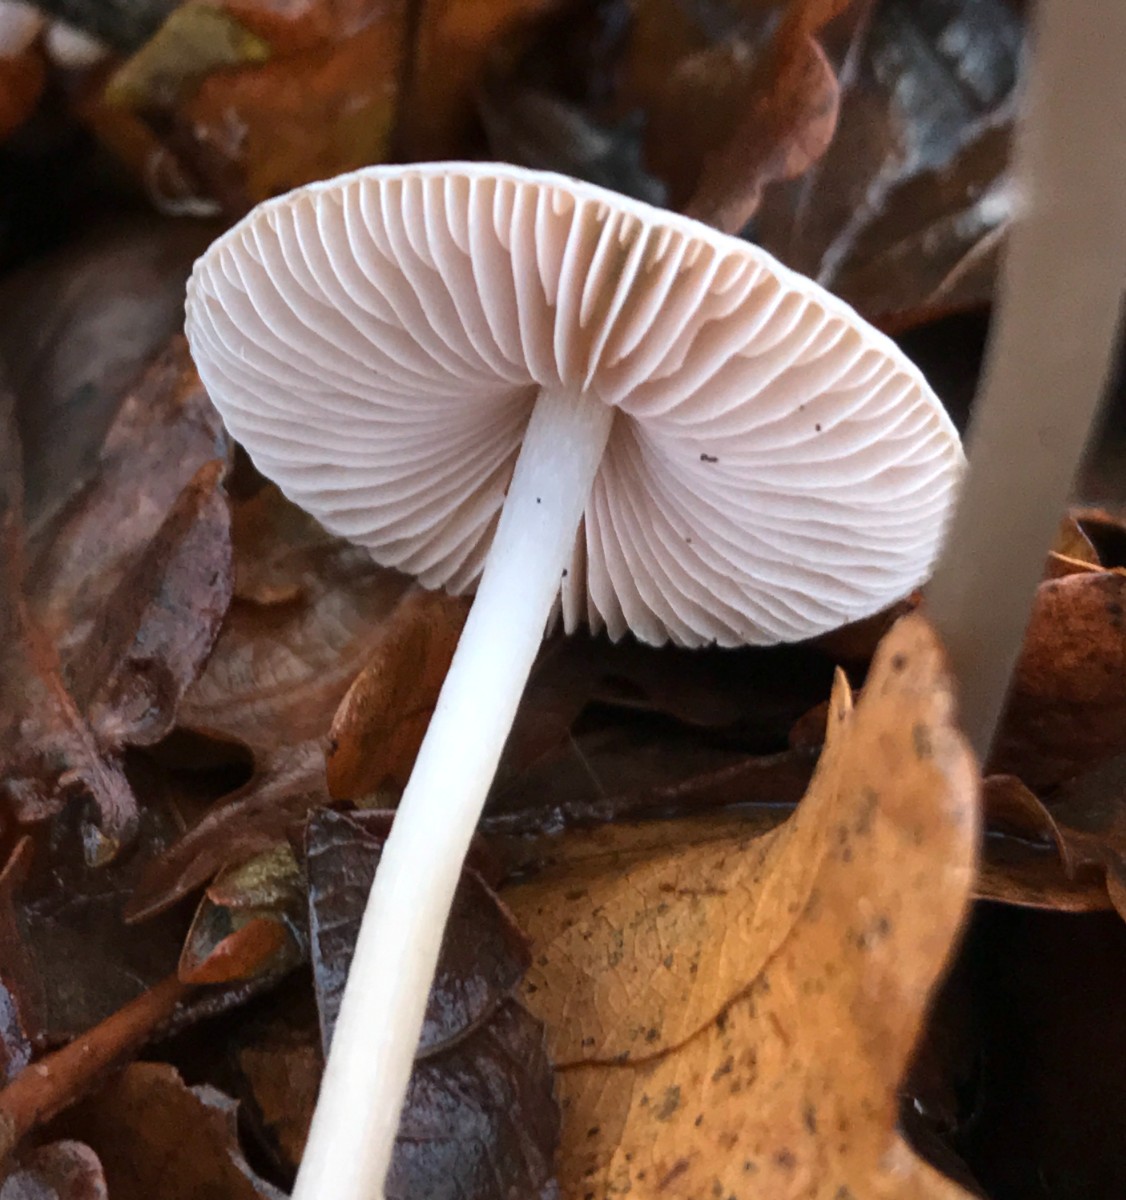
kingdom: Fungi
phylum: Basidiomycota
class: Agaricomycetes
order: Agaricales
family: Mycenaceae
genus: Mycena
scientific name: Mycena polygramma
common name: mangestribet huesvamp
